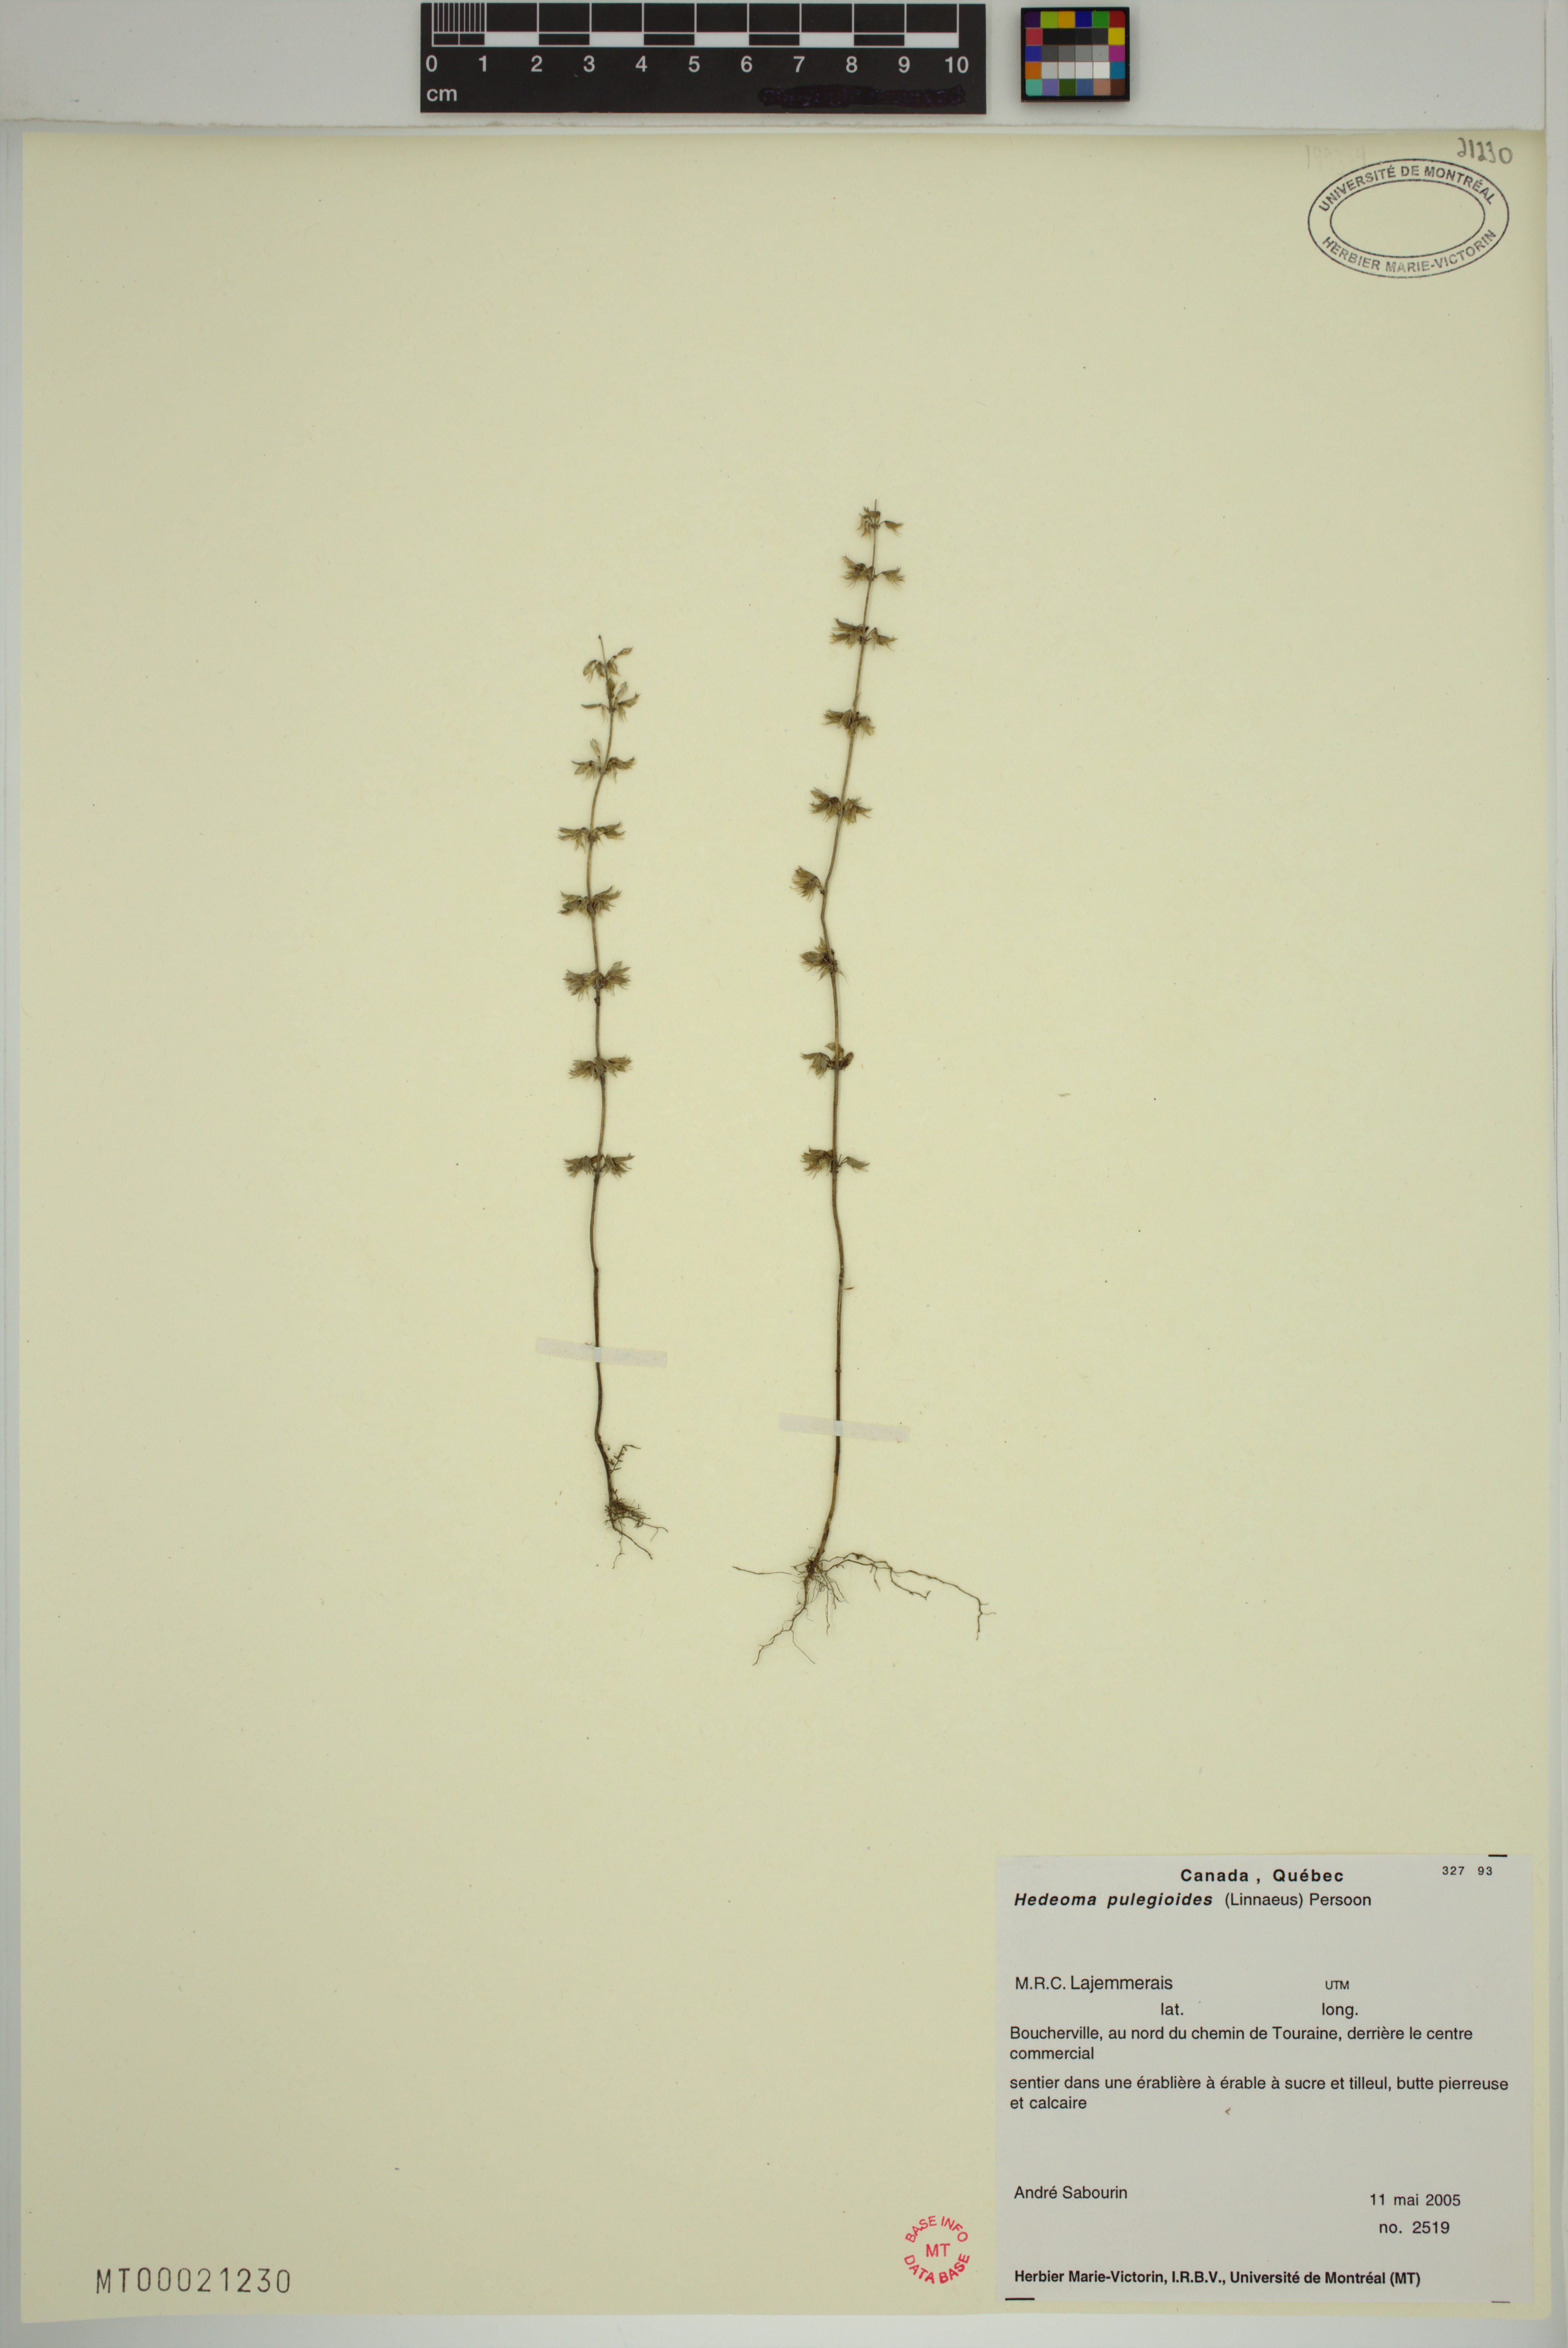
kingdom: Plantae
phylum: Tracheophyta
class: Magnoliopsida
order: Lamiales
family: Lamiaceae
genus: Hedeoma
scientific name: Hedeoma pulegioides
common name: American false pennyroyal
